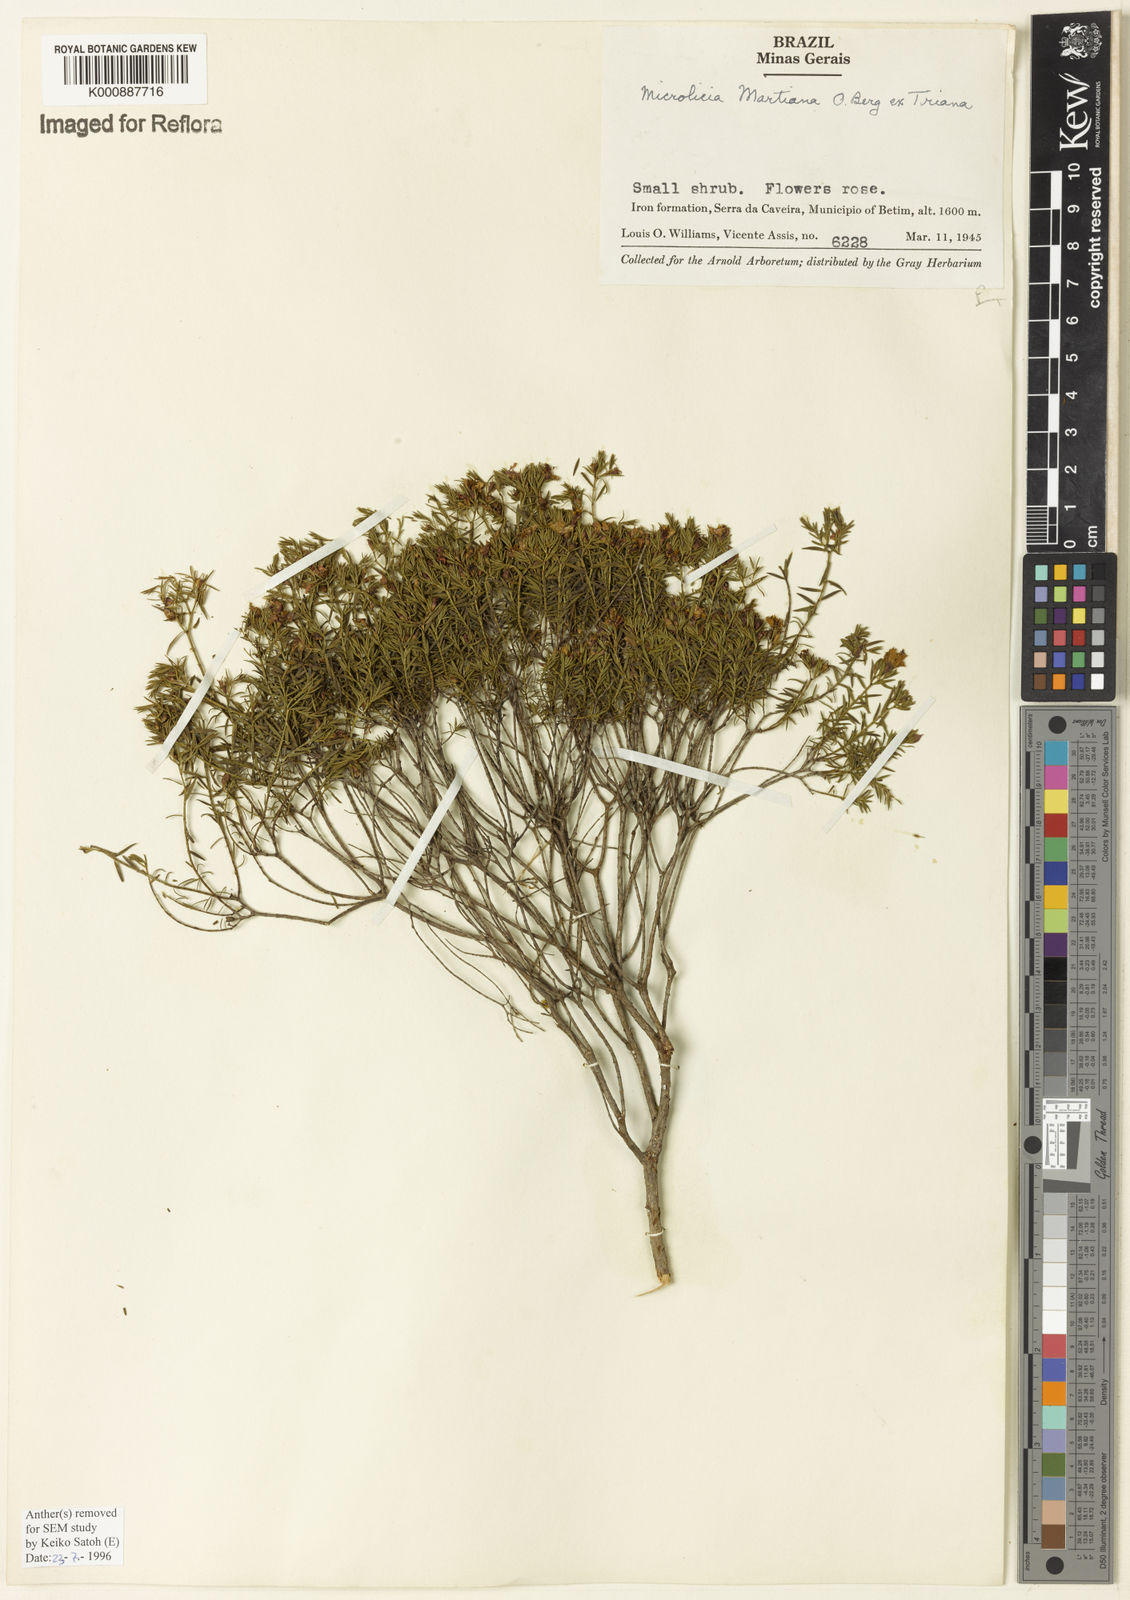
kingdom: Plantae
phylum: Tracheophyta
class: Magnoliopsida
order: Myrtales
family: Melastomataceae
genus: Microlicia
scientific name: Microlicia martiana
